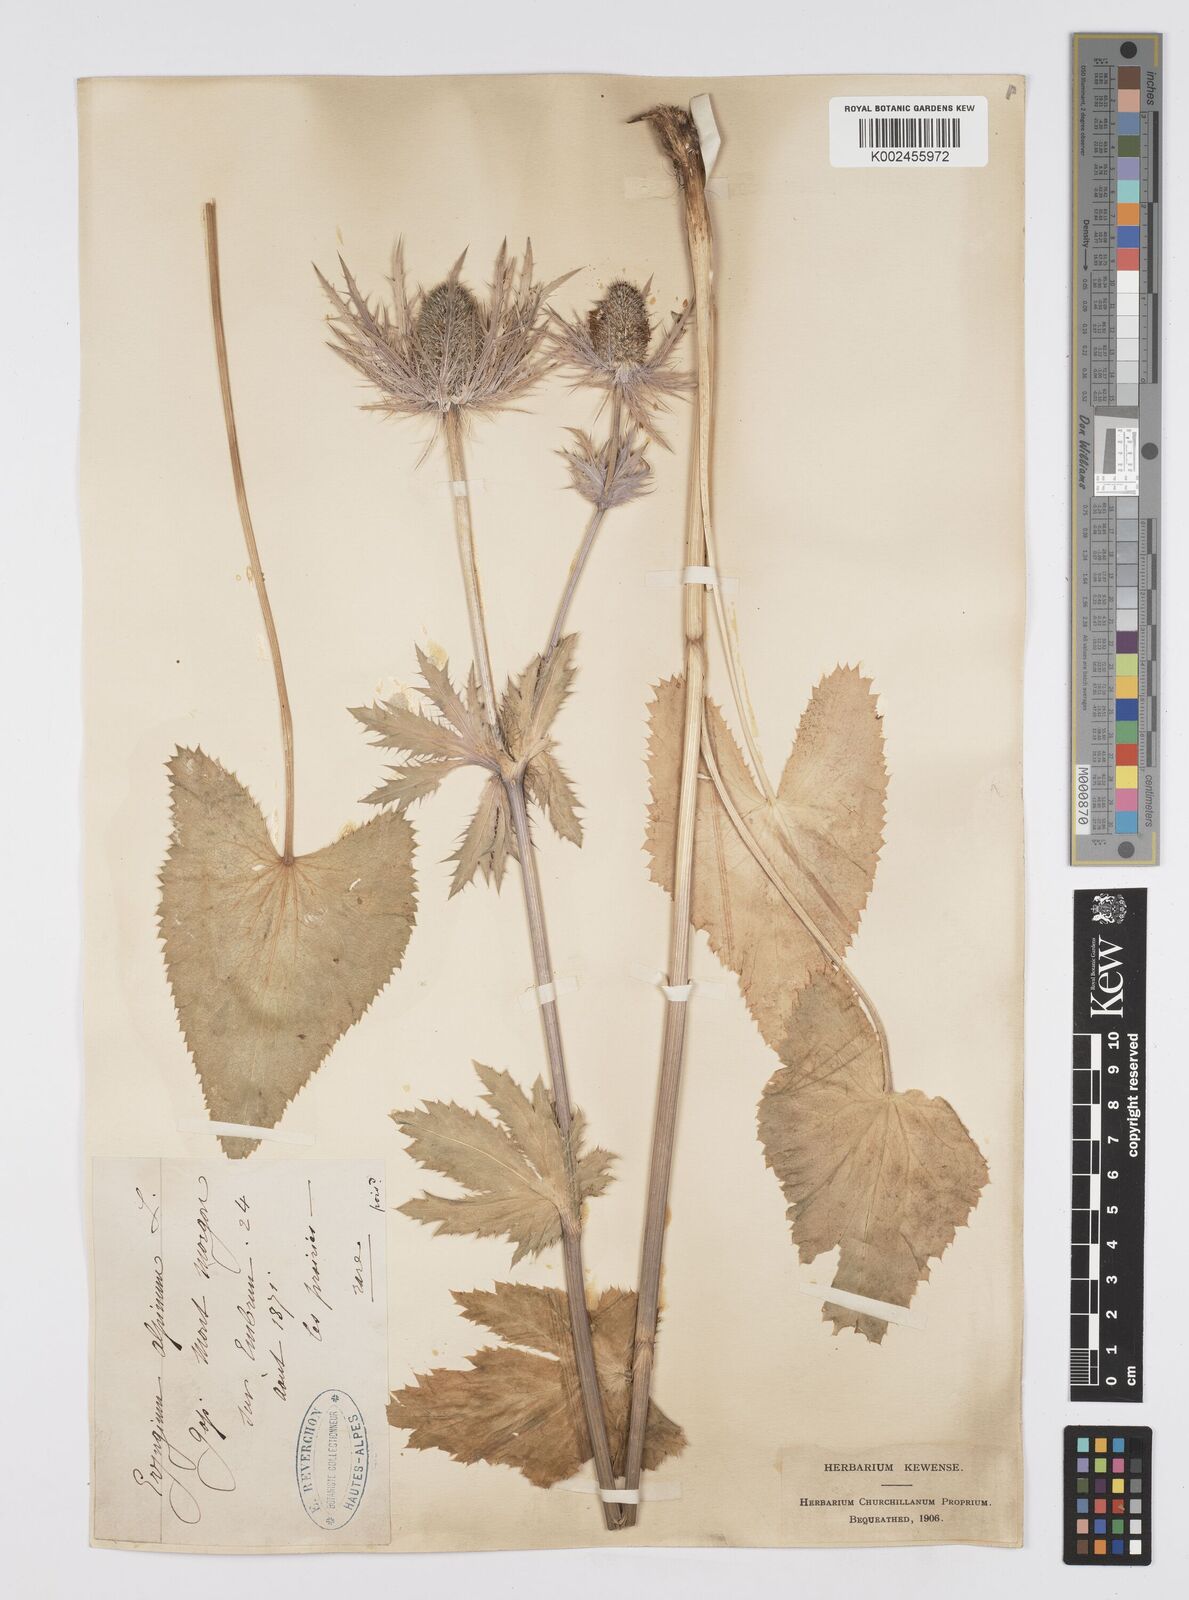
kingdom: Plantae
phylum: Tracheophyta
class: Magnoliopsida
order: Apiales
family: Apiaceae
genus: Eryngium
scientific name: Eryngium alpinum
